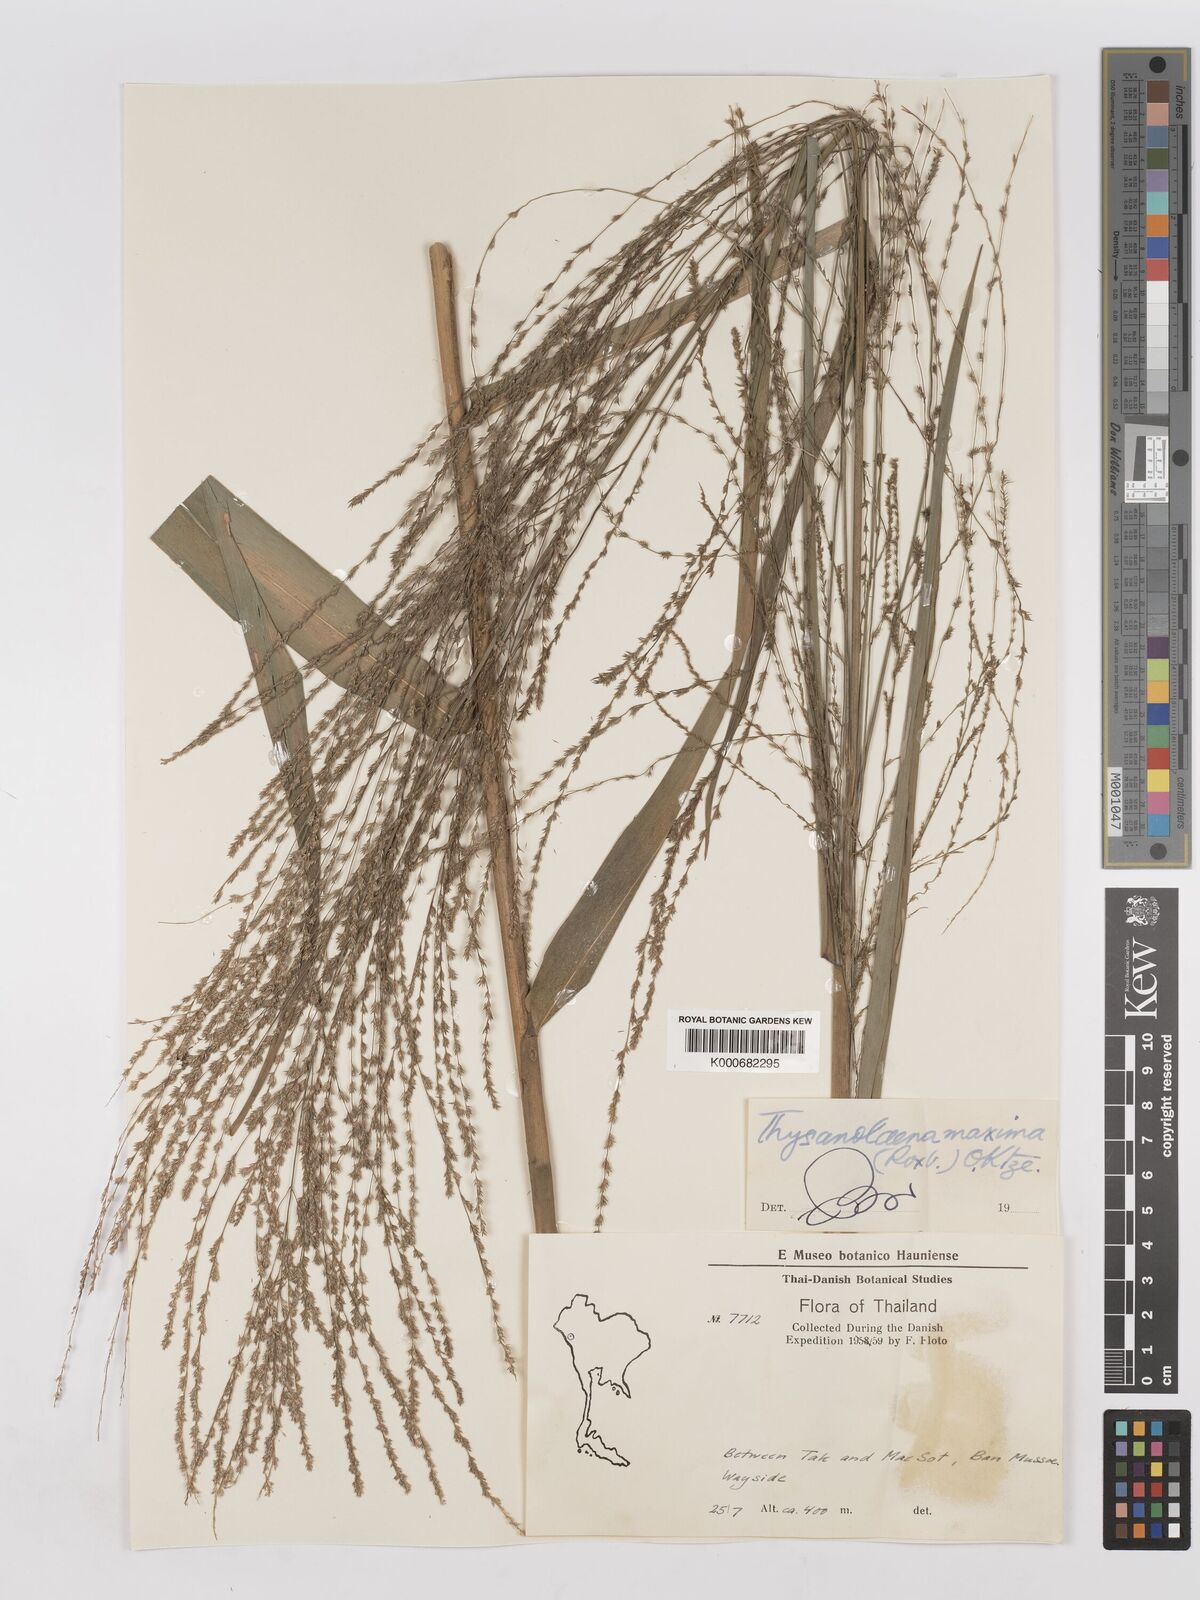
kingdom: Plantae
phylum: Tracheophyta
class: Liliopsida
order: Poales
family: Poaceae
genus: Thysanolaena
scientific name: Thysanolaena latifolia
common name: Tiger grass
